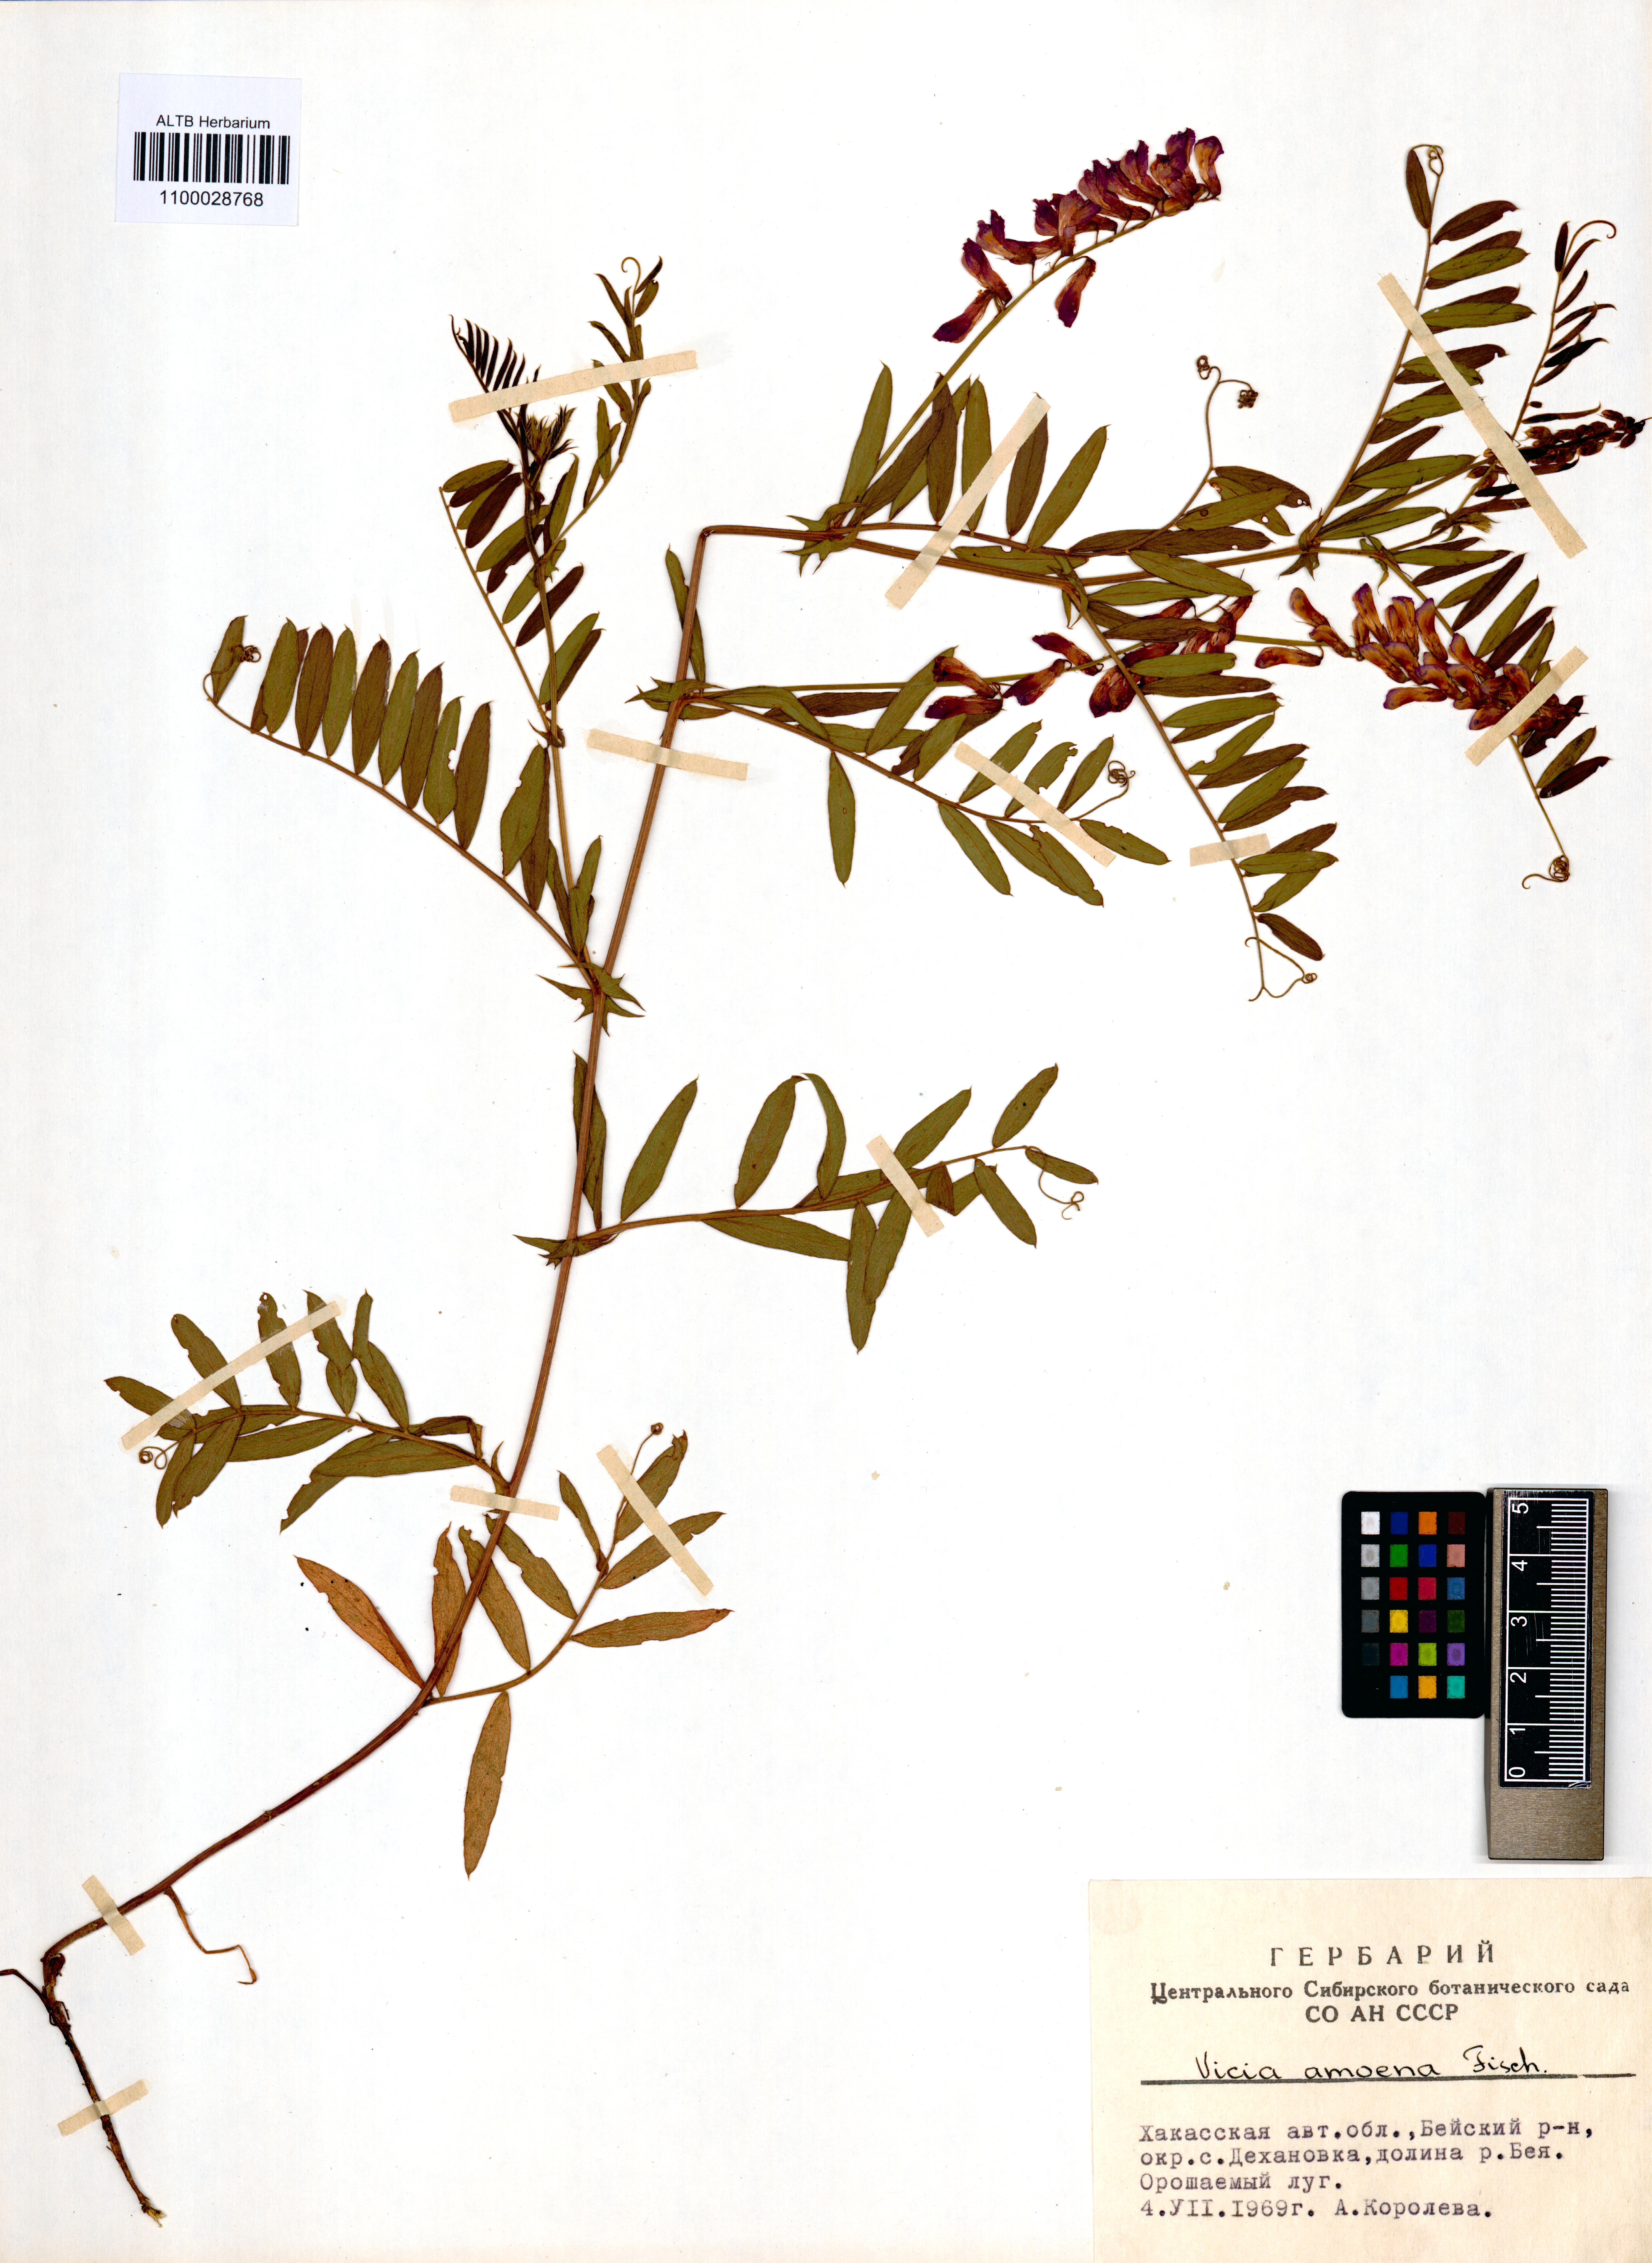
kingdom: Plantae
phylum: Tracheophyta
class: Magnoliopsida
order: Fabales
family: Fabaceae
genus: Vicia
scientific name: Vicia amoena
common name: Cheder ebs
